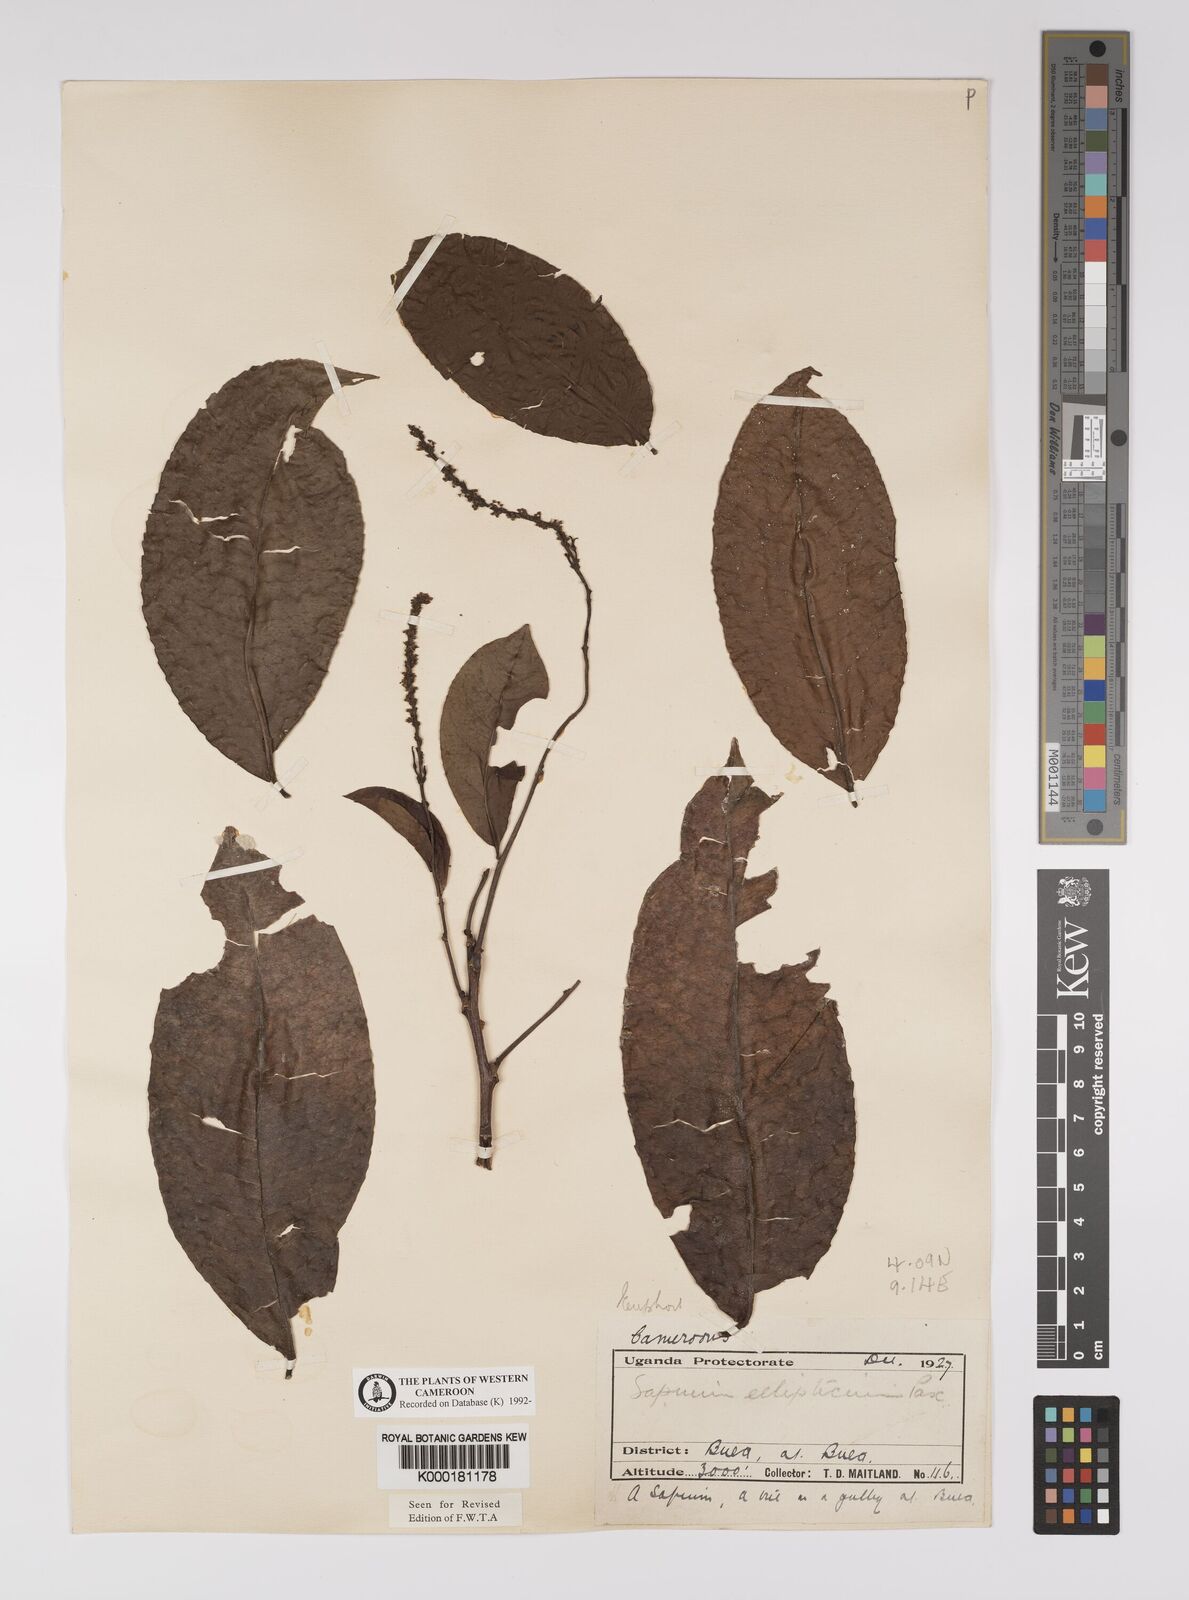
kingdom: Plantae
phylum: Tracheophyta
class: Magnoliopsida
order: Malpighiales
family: Euphorbiaceae
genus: Shirakiopsis
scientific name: Shirakiopsis elliptica
